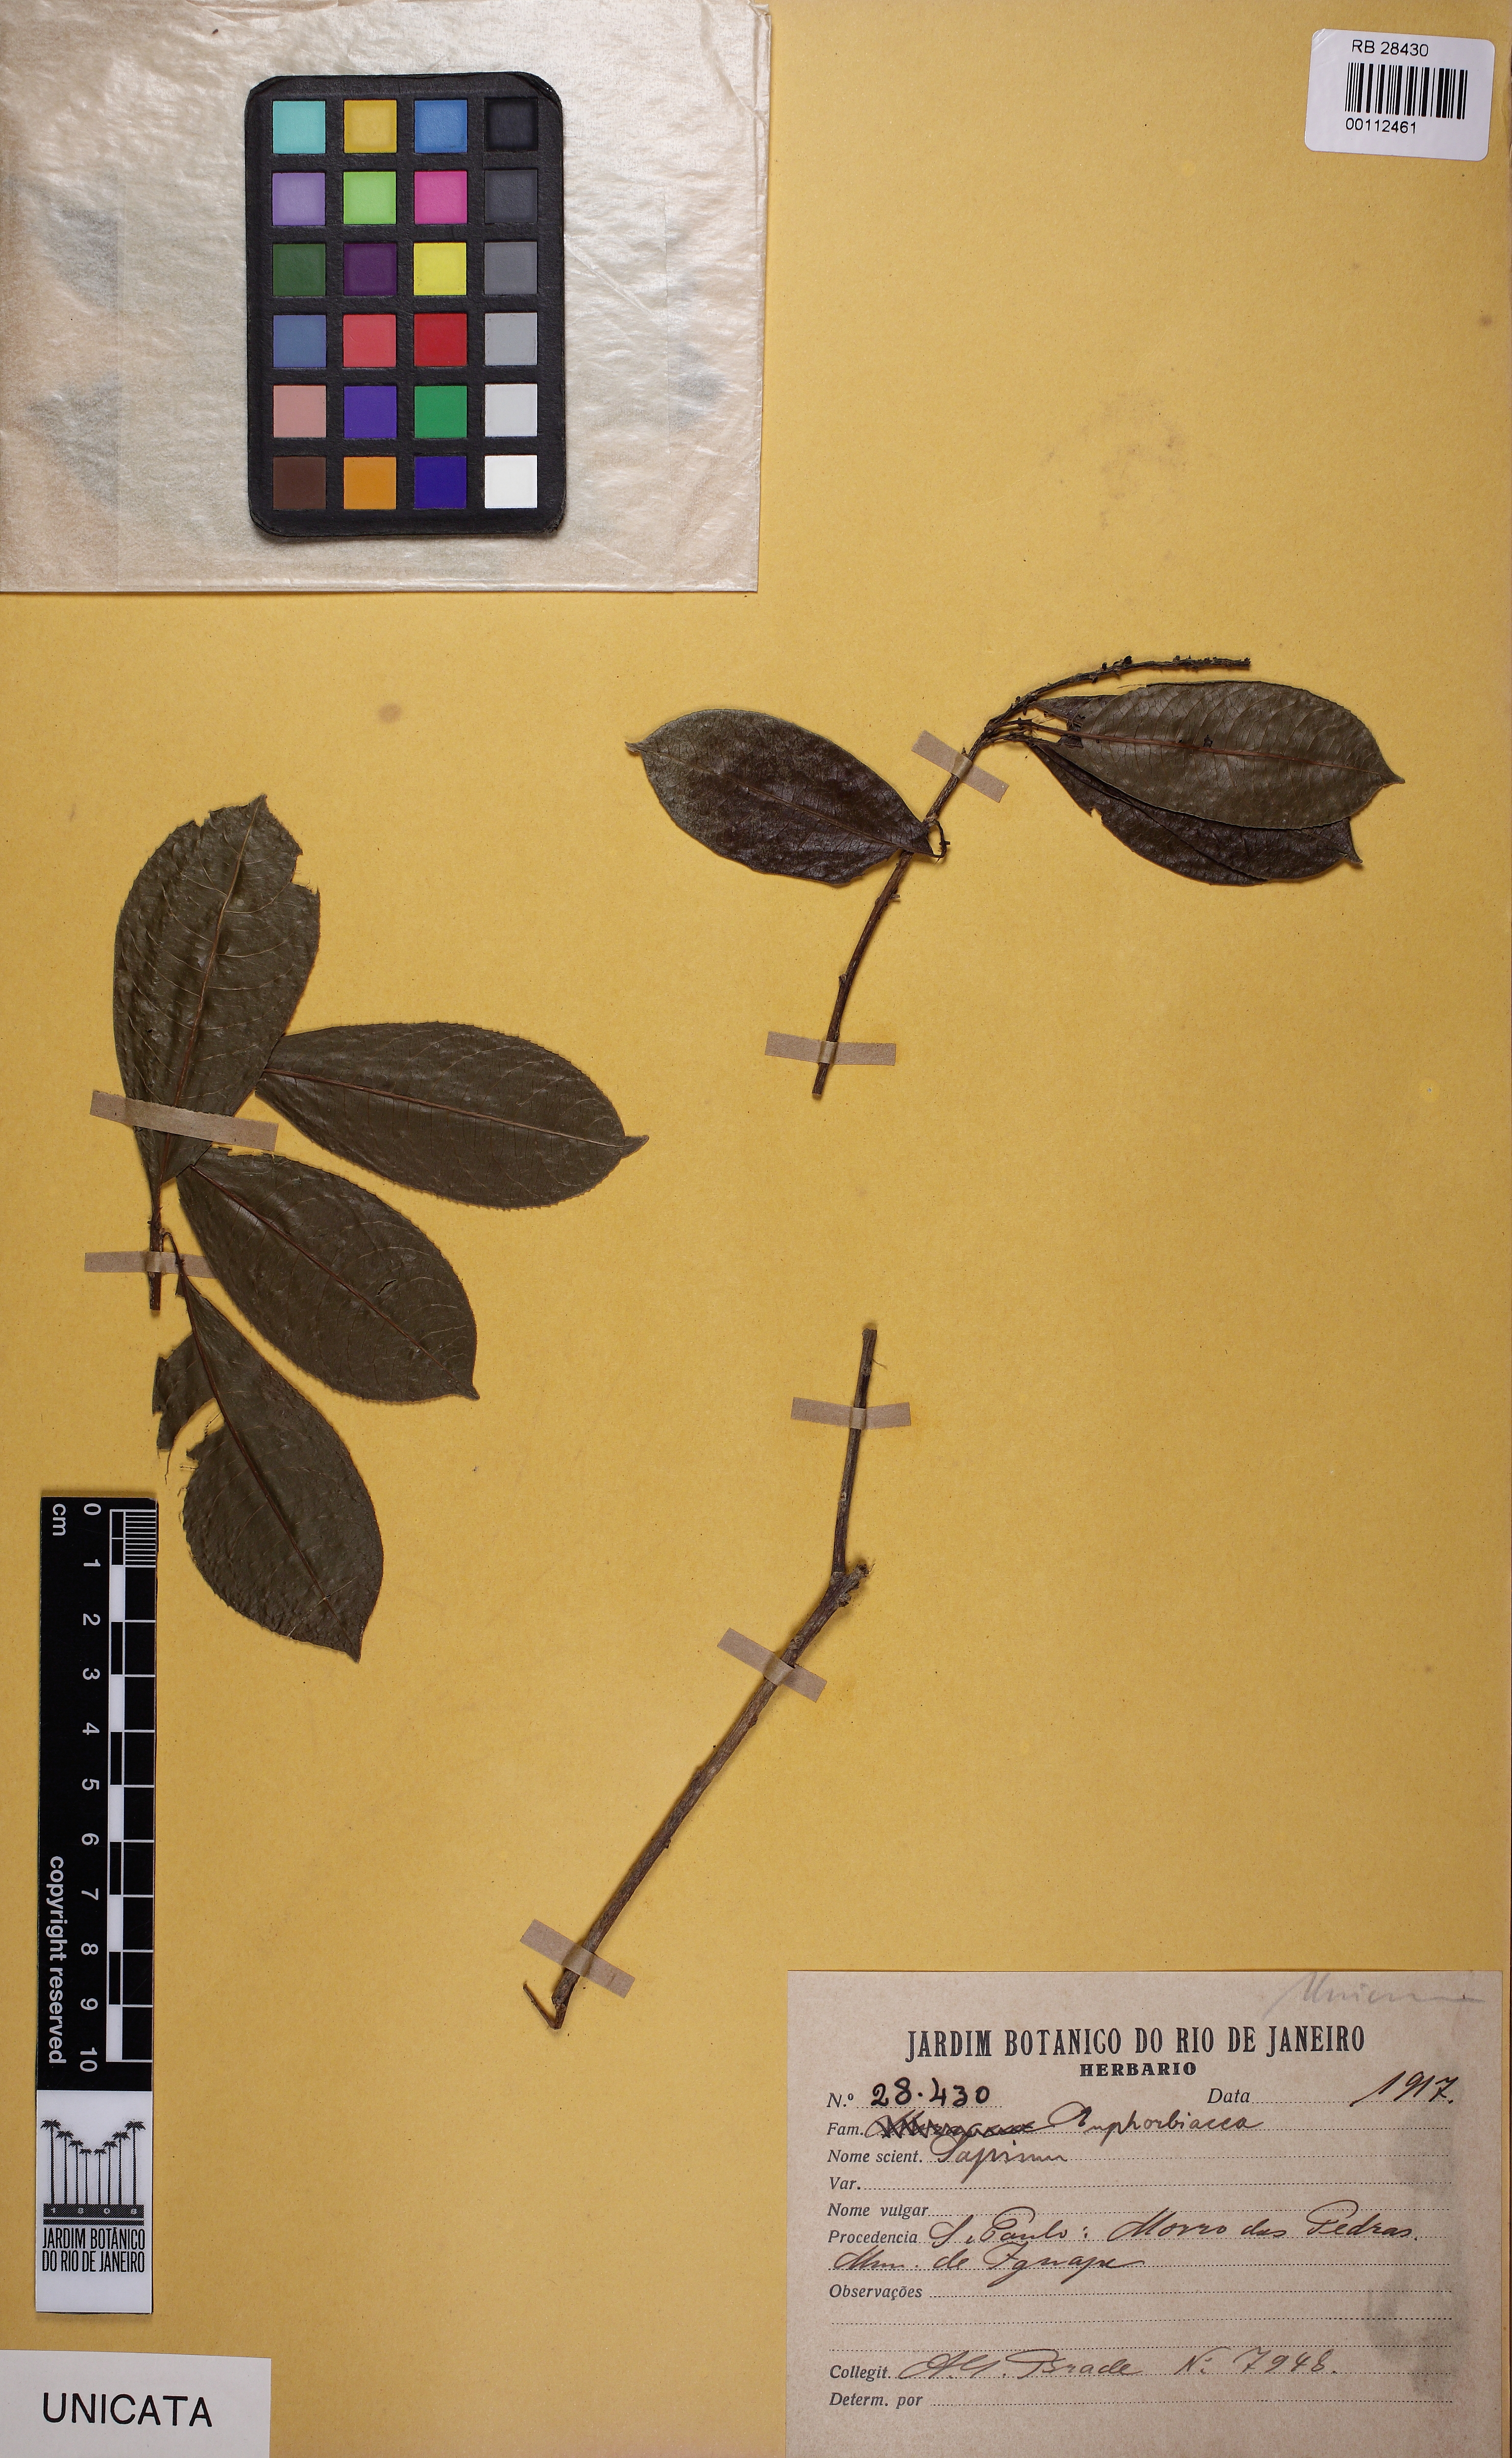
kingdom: Plantae
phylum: Tracheophyta
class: Magnoliopsida
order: Malpighiales
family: Euphorbiaceae
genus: Sapium
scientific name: Sapium glandulosum
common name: Milktree
